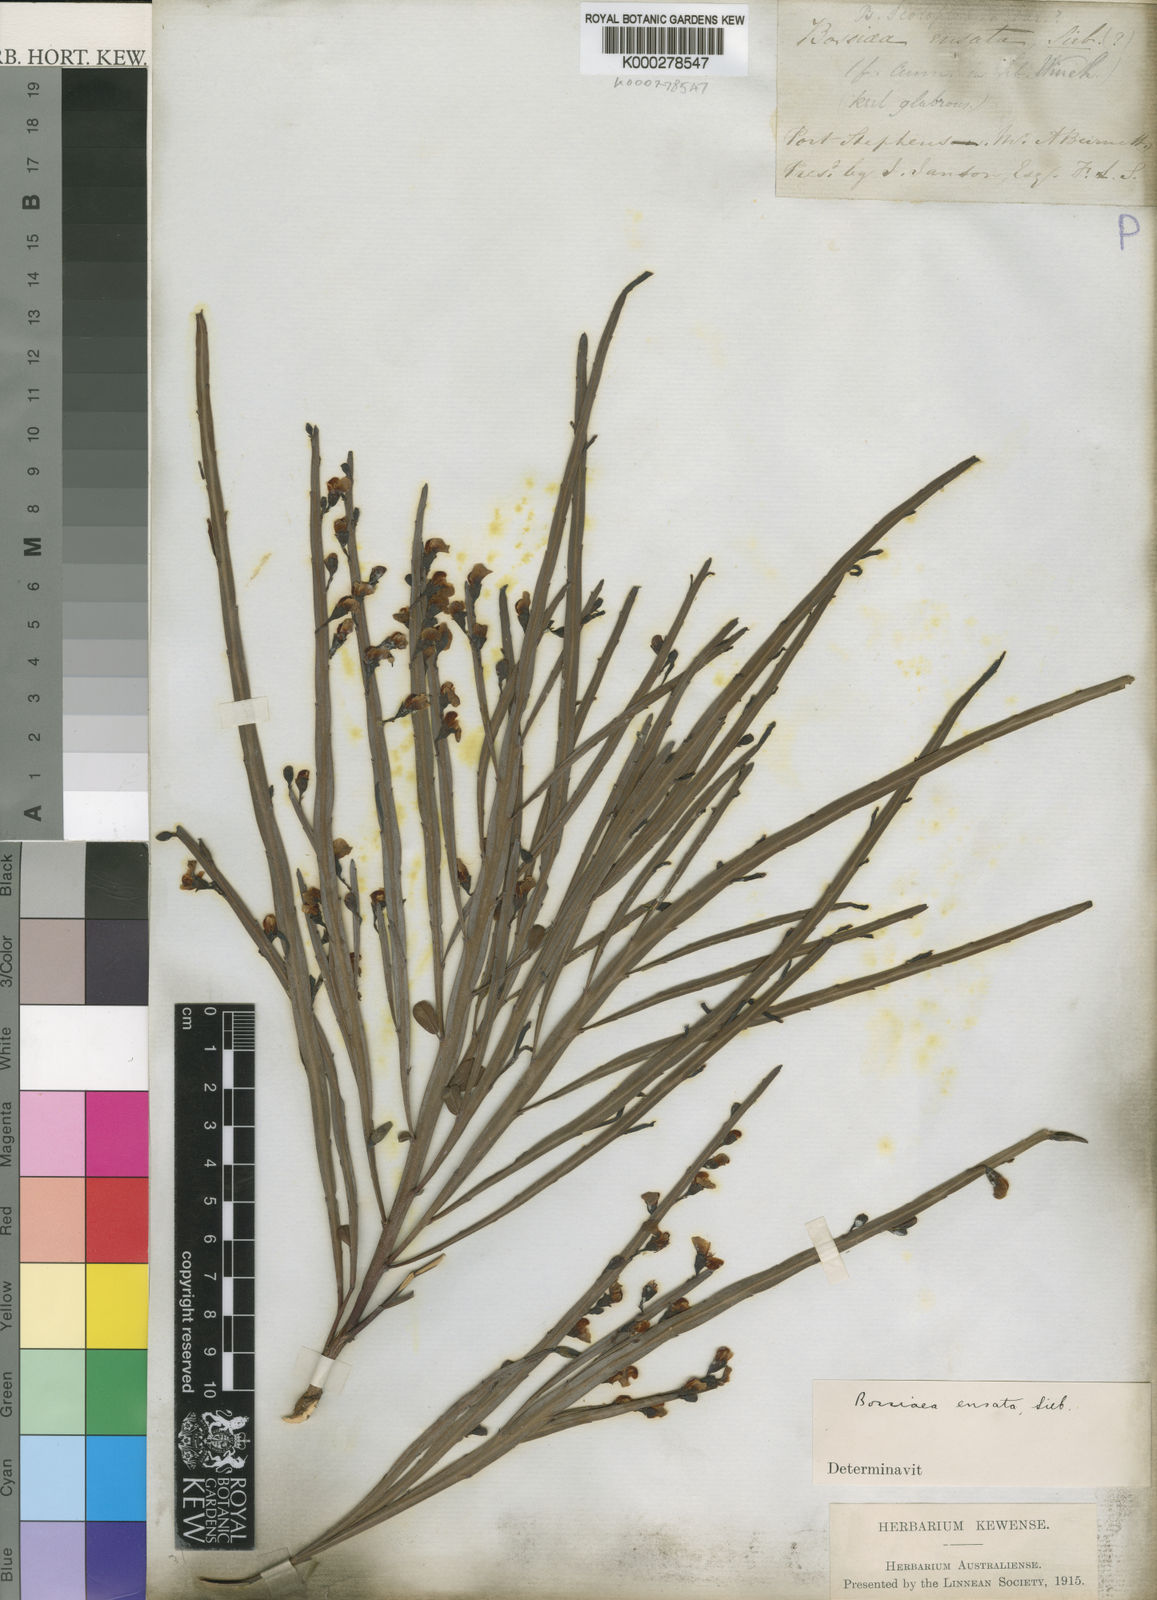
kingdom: Plantae
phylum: Tracheophyta
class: Magnoliopsida
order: Fabales
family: Fabaceae
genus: Bossiaea
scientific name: Bossiaea ensata
